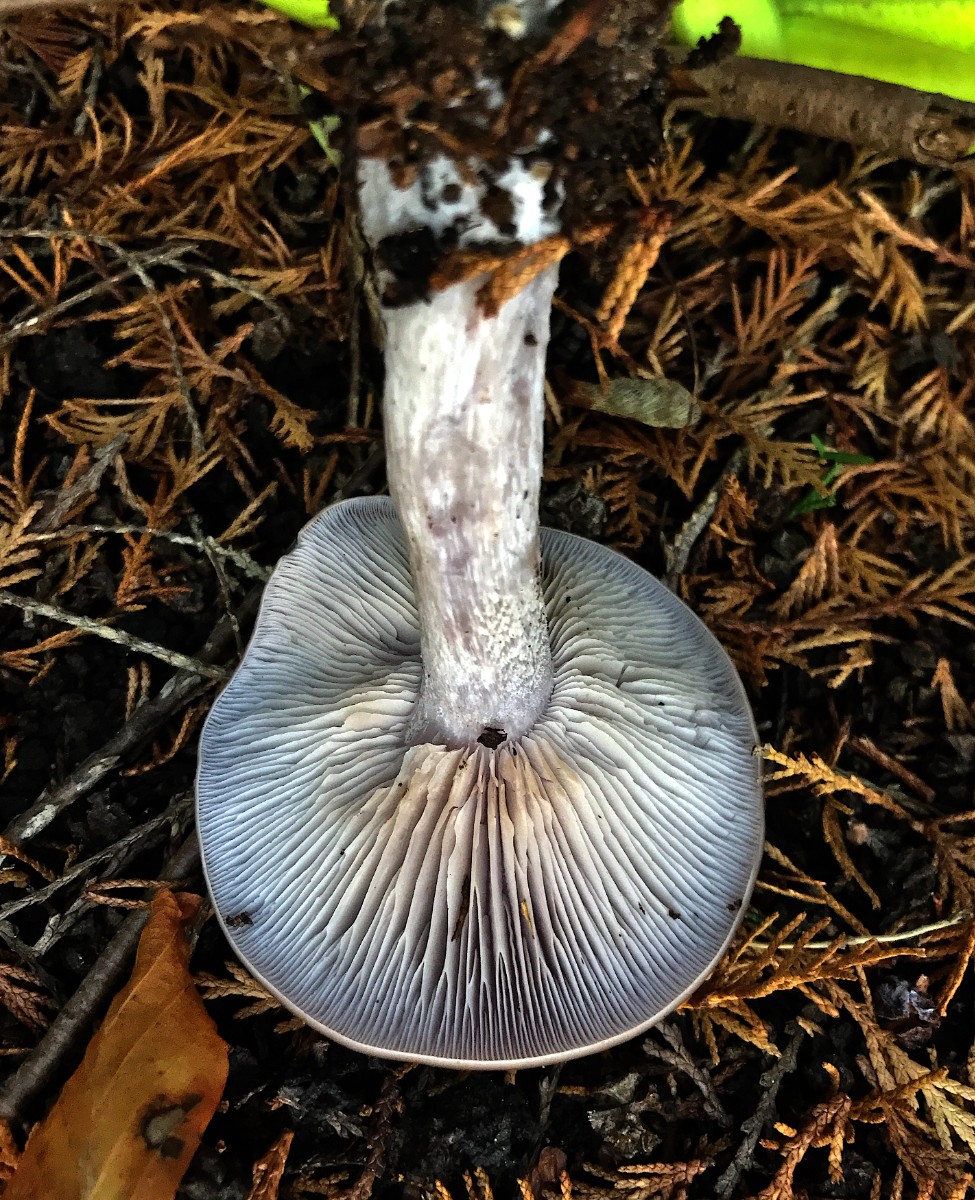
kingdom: Fungi
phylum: Basidiomycota
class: Agaricomycetes
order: Agaricales
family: Tricholomataceae
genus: Lepista
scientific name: Lepista nuda
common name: violet hekseringshat
